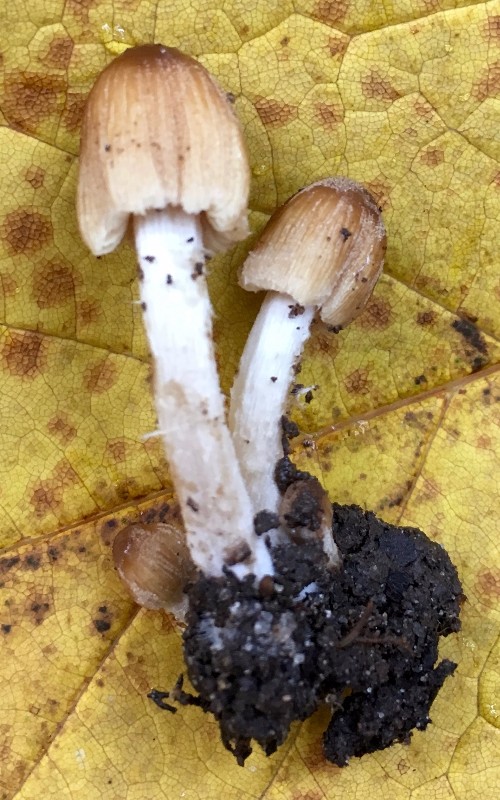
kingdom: Fungi
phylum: Basidiomycota
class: Agaricomycetes
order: Agaricales
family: Psathyrellaceae
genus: Coprinellus
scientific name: Coprinellus micaceus
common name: glimmer-blækhat
